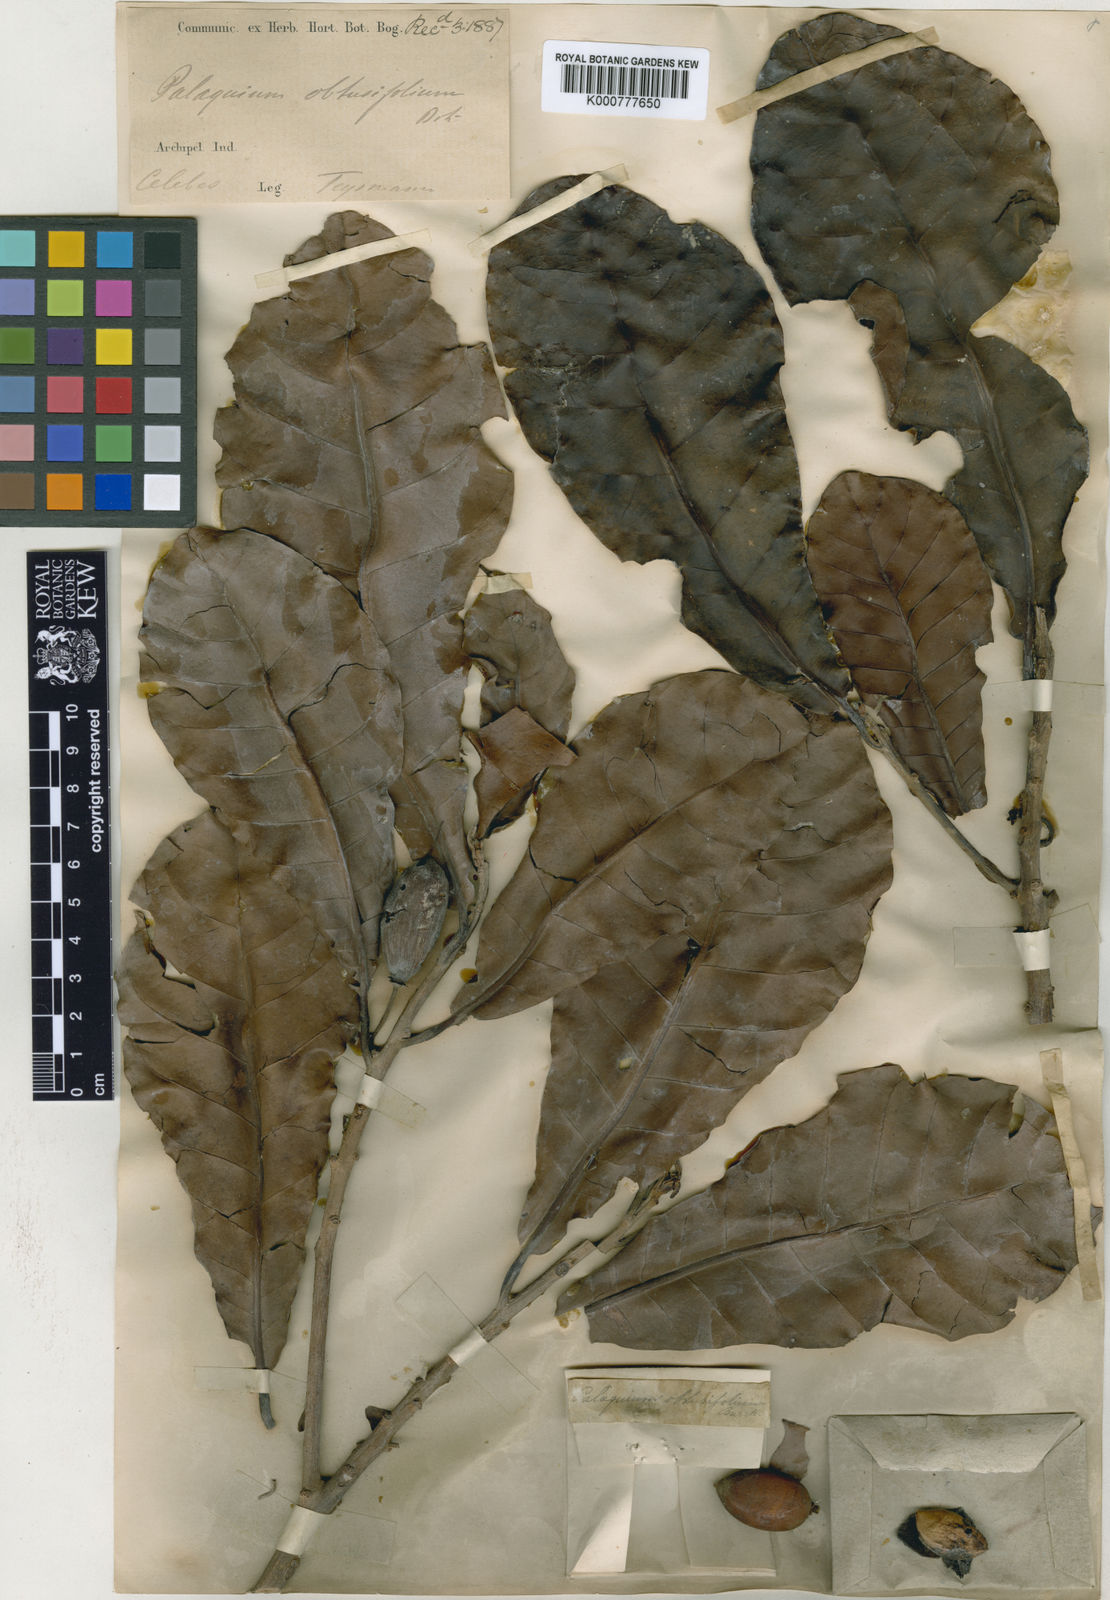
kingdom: Plantae
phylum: Tracheophyta
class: Magnoliopsida
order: Ericales
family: Sapotaceae
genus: Palaquium
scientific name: Palaquium obtusifolium
